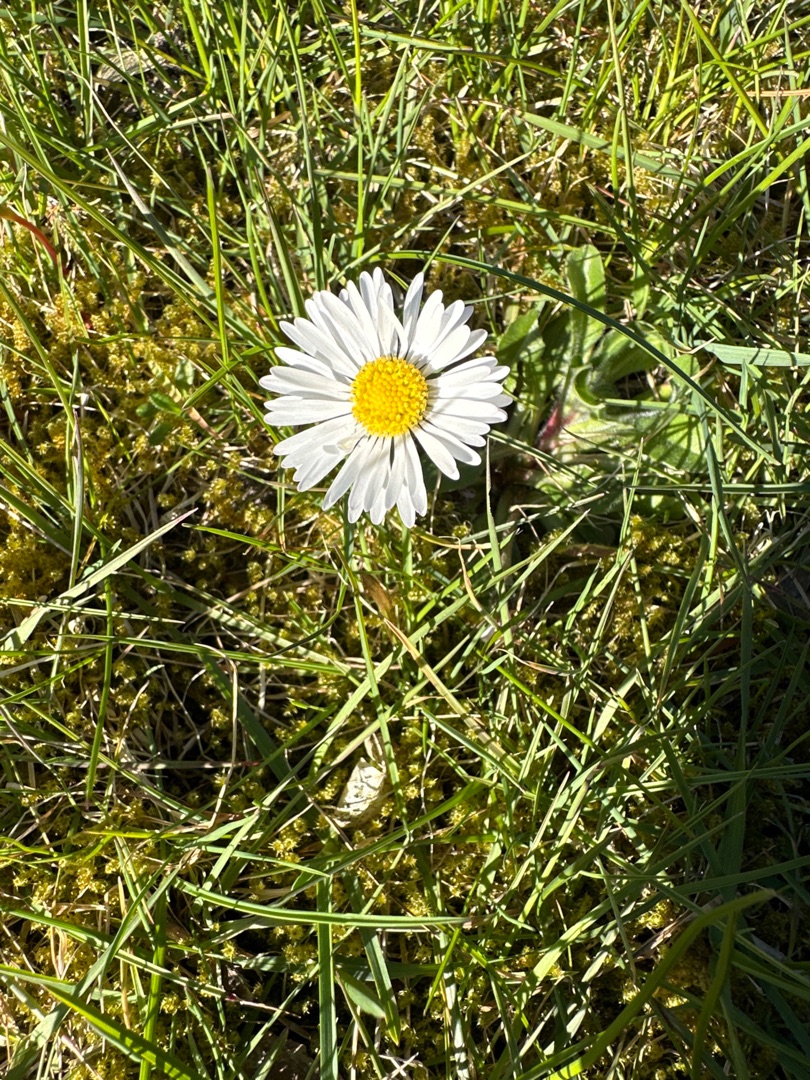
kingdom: Plantae
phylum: Tracheophyta
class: Magnoliopsida
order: Asterales
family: Asteraceae
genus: Bellis
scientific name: Bellis perennis
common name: Tusindfryd
